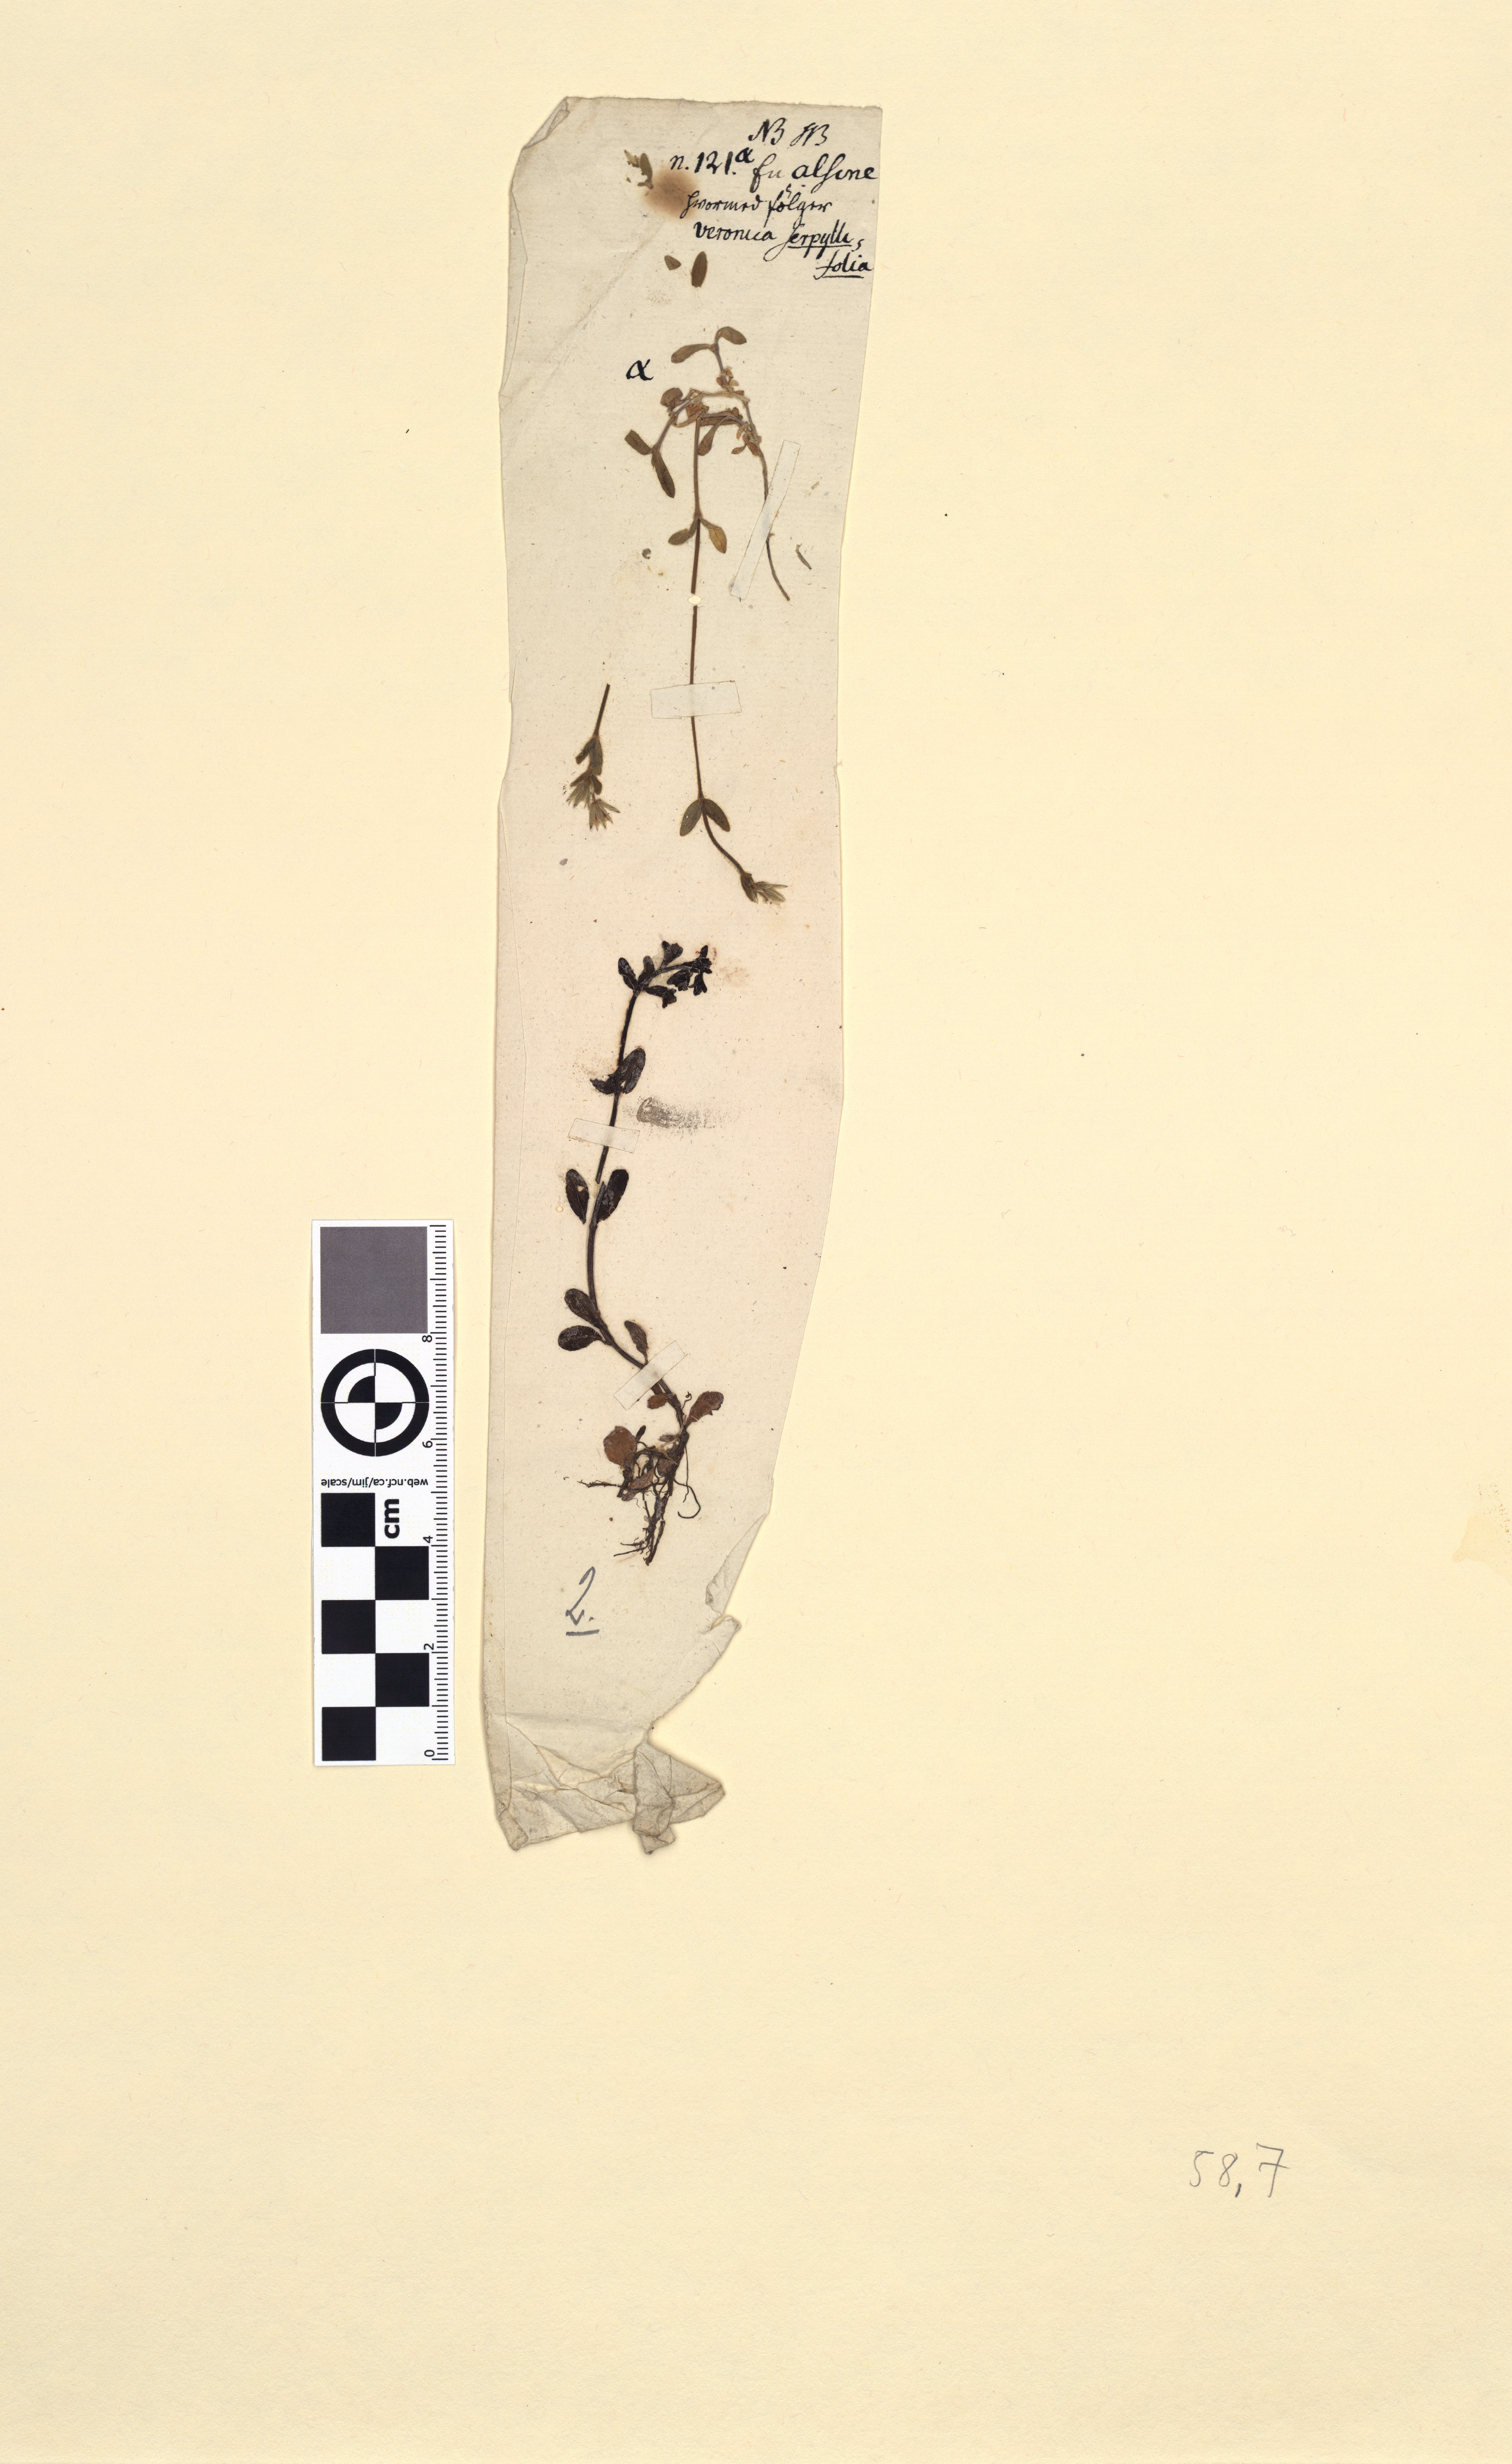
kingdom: Plantae
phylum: Tracheophyta
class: Magnoliopsida
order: Caryophyllales
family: Caryophyllaceae
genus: Cerastium
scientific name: Cerastium holosteoides
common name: Big chickweed
